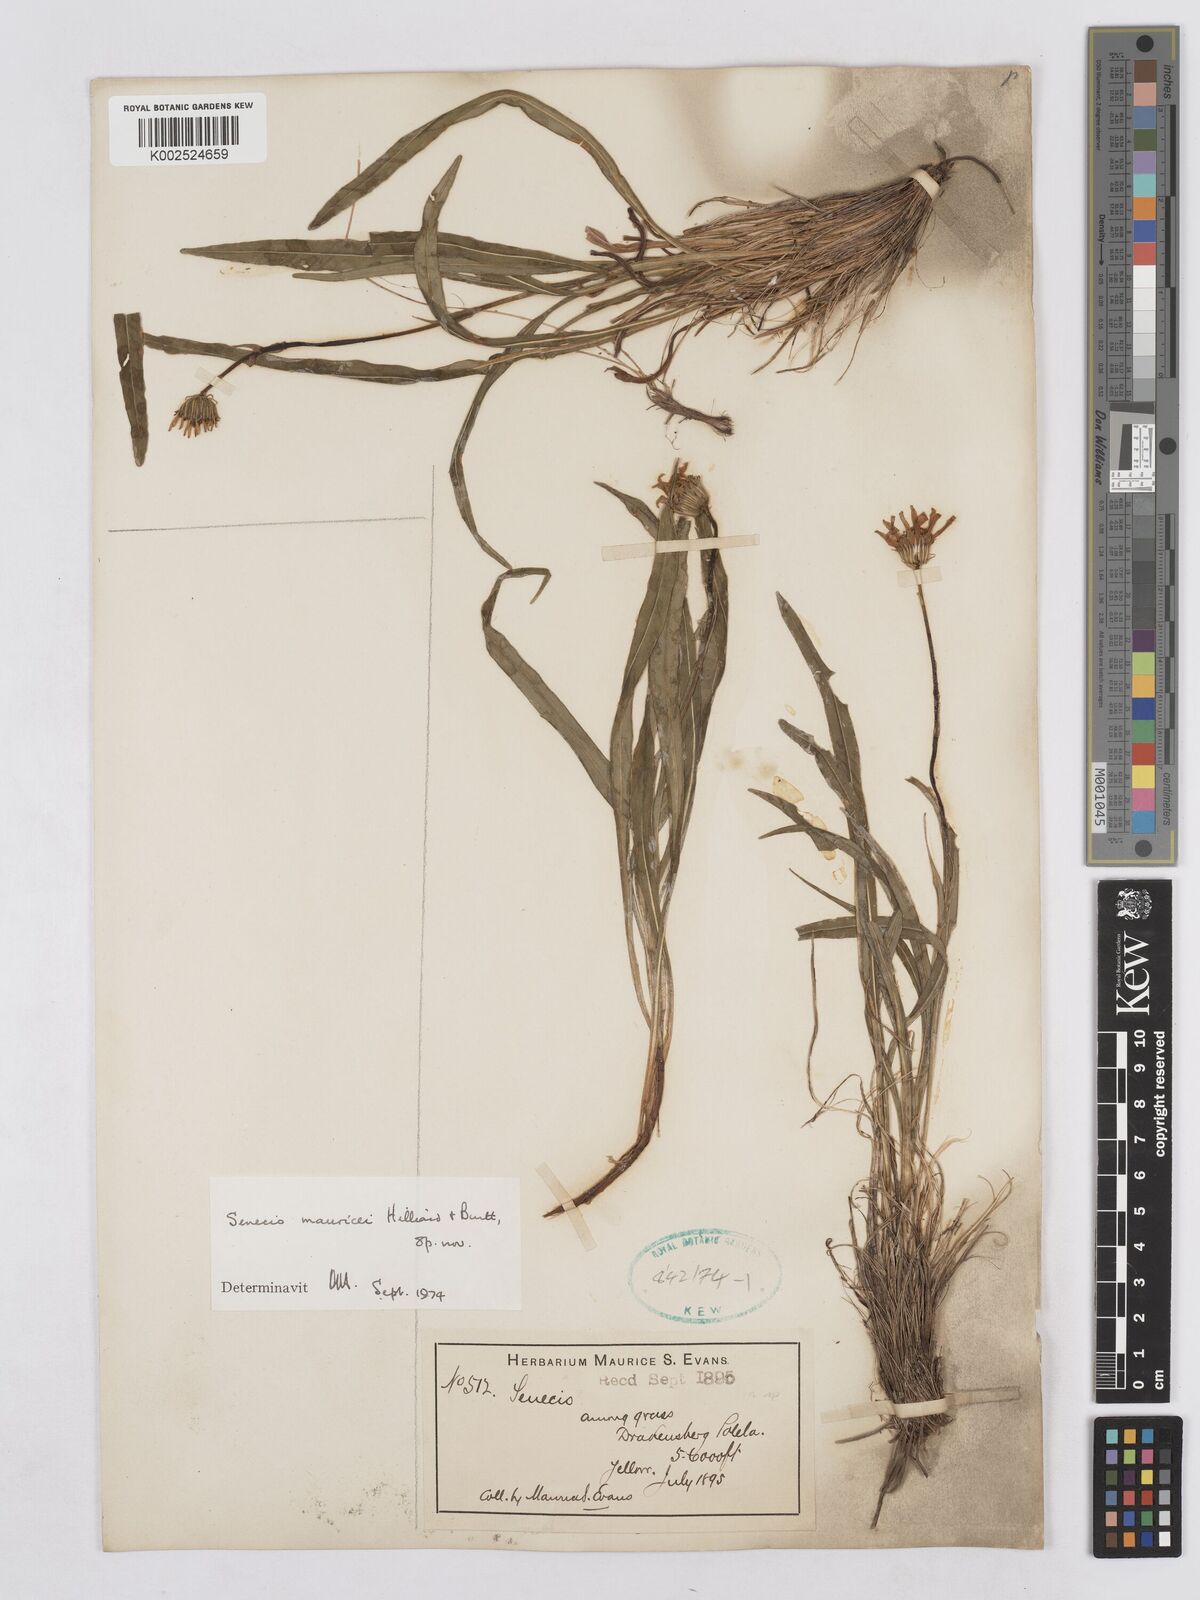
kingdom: Plantae
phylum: Tracheophyta
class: Magnoliopsida
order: Asterales
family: Asteraceae
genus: Senecio
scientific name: Senecio mauricei
